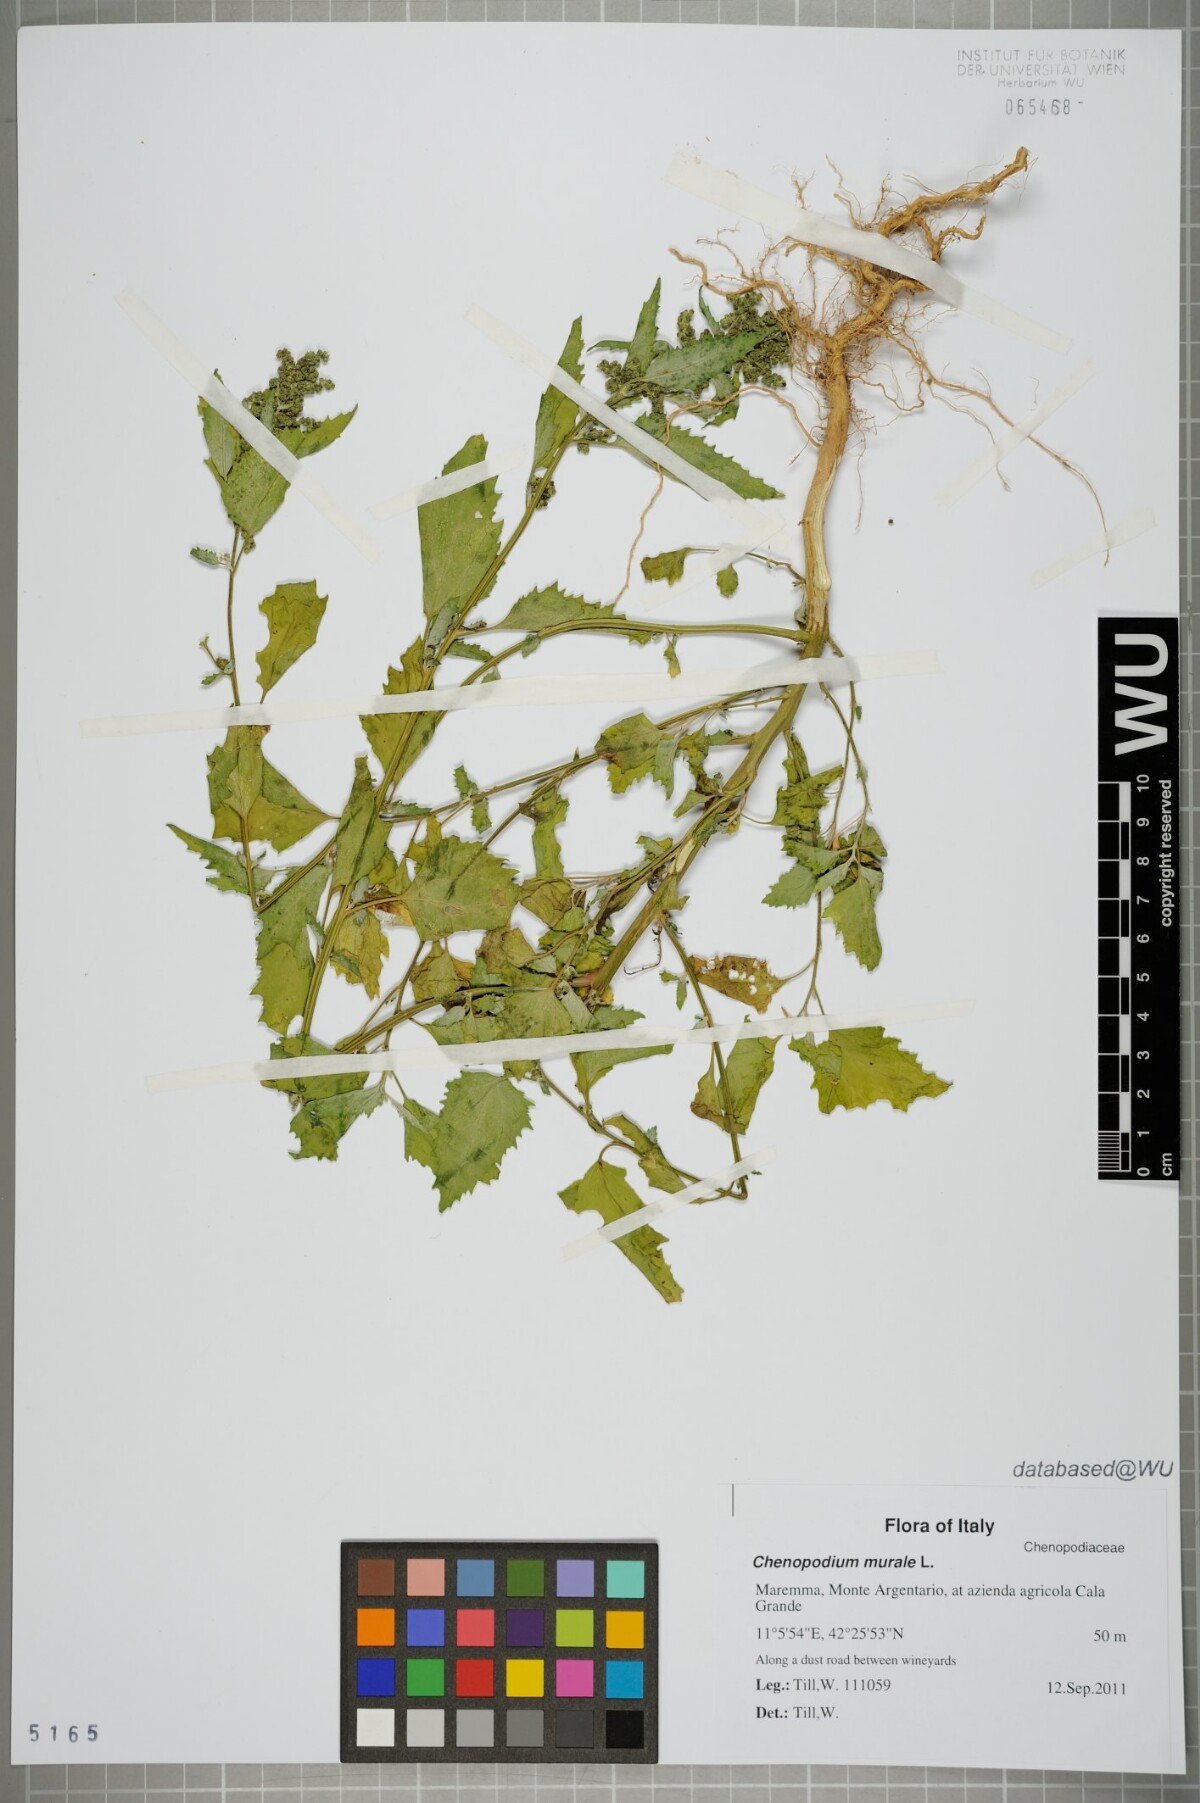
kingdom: Plantae
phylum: Tracheophyta
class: Magnoliopsida
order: Caryophyllales
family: Amaranthaceae
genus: Chenopodiastrum
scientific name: Chenopodiastrum murale
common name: Sowbane
